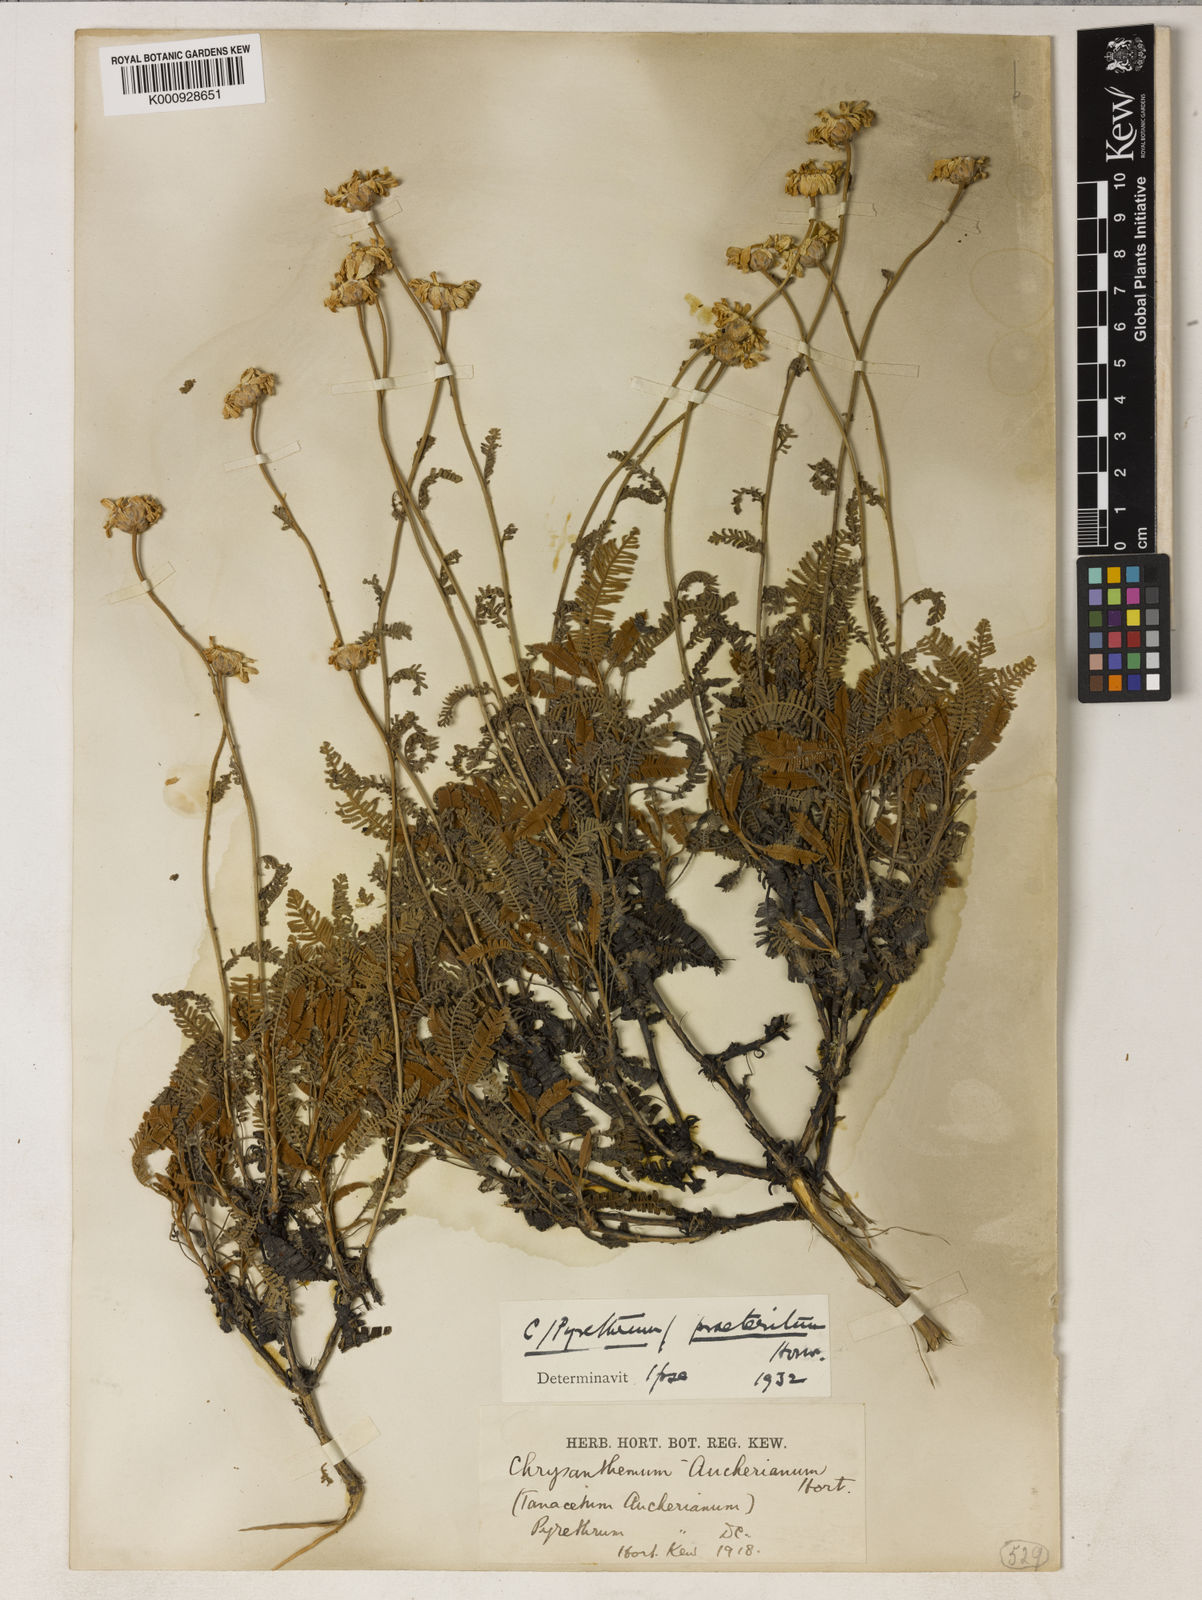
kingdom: Plantae
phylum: Tracheophyta
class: Magnoliopsida
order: Asterales
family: Asteraceae
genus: Tanacetum
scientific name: Tanacetum praeteritum
